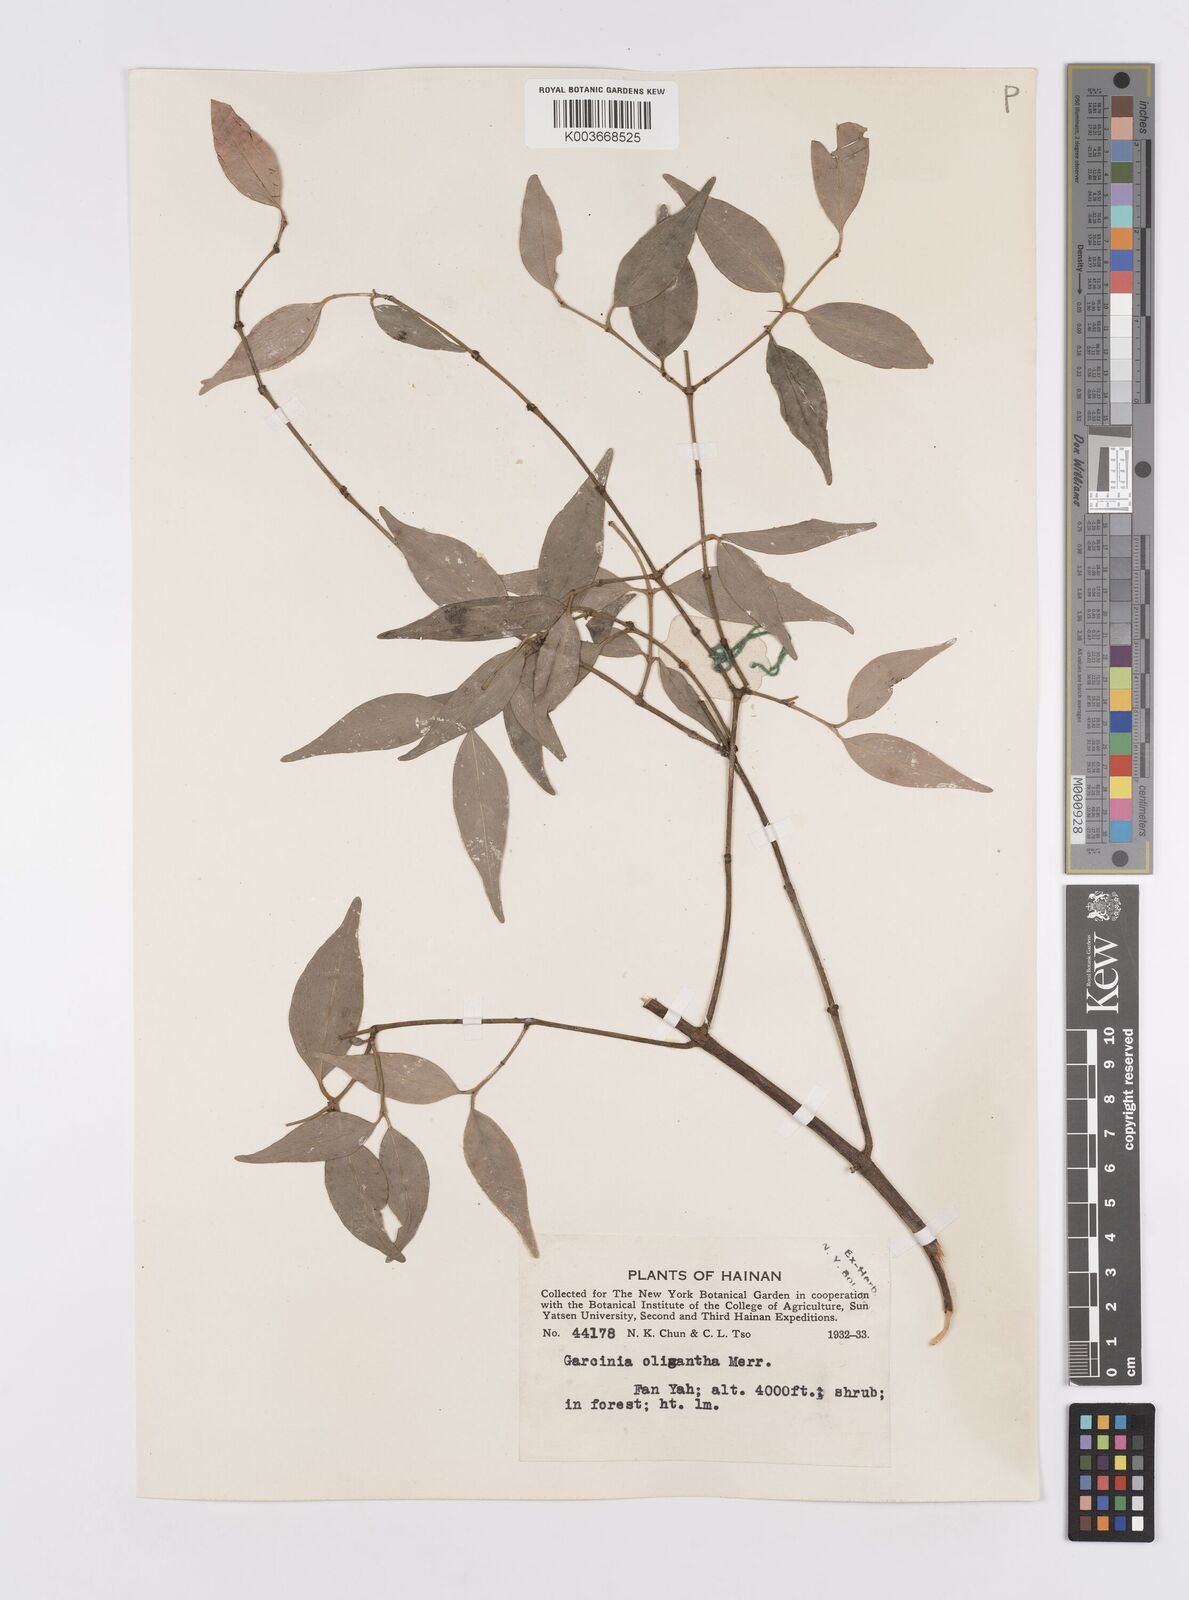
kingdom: Plantae
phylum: Tracheophyta
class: Magnoliopsida
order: Malpighiales
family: Clusiaceae
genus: Garcinia
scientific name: Garcinia oligantha
